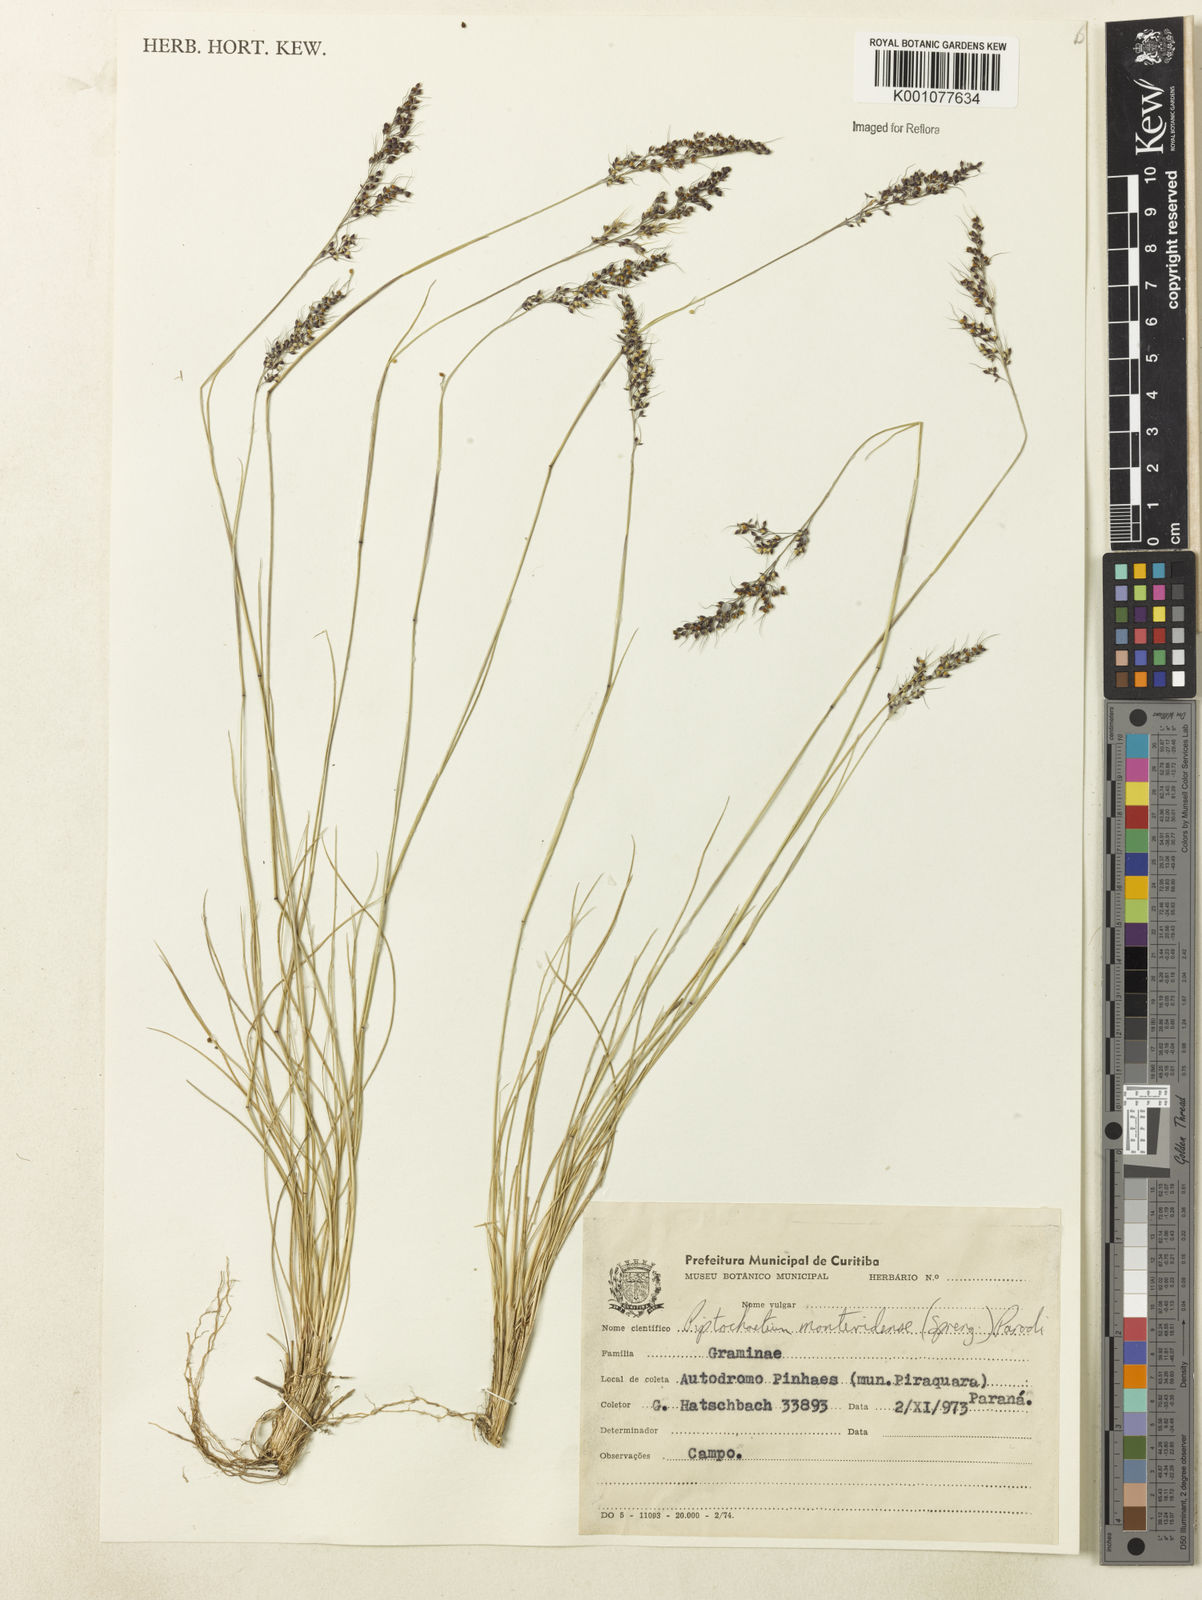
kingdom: Plantae
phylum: Tracheophyta
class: Liliopsida
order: Poales
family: Poaceae
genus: Piptochaetium
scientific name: Piptochaetium montevidense
